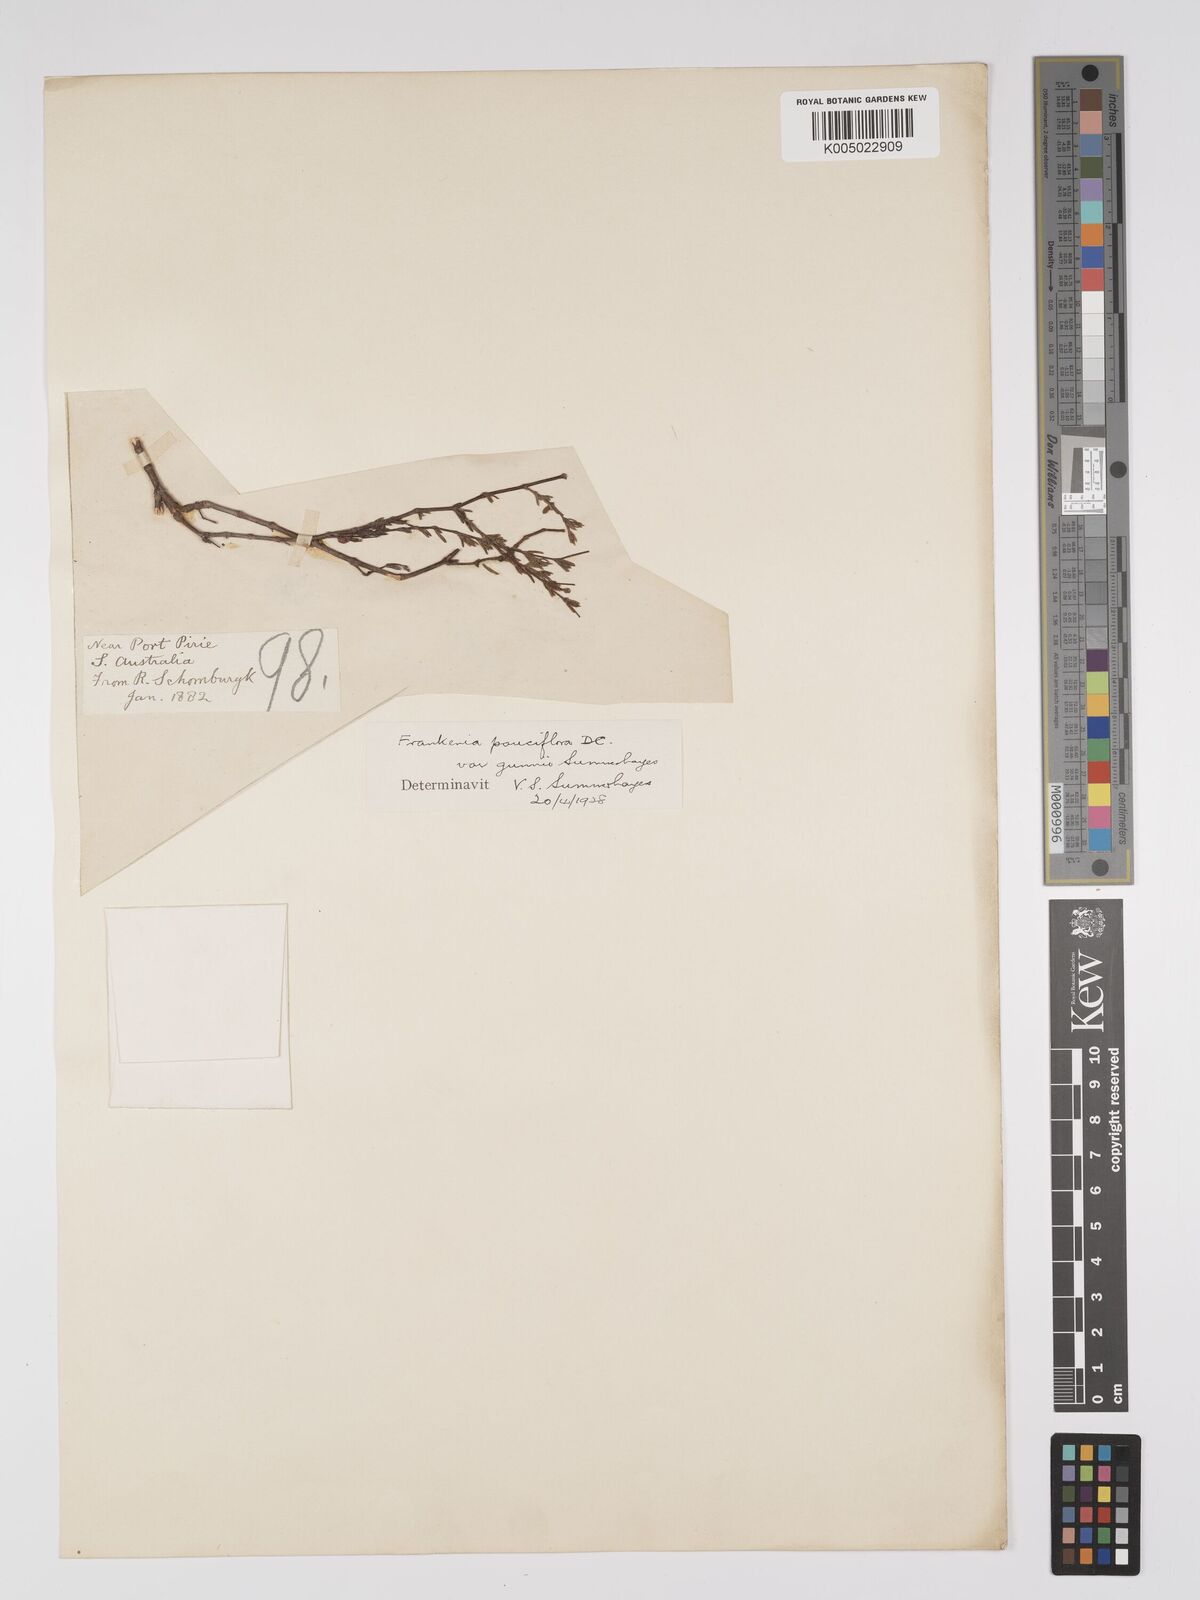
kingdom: Plantae
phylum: Tracheophyta
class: Magnoliopsida
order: Caryophyllales
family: Frankeniaceae
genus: Frankenia
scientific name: Frankenia pauciflora
